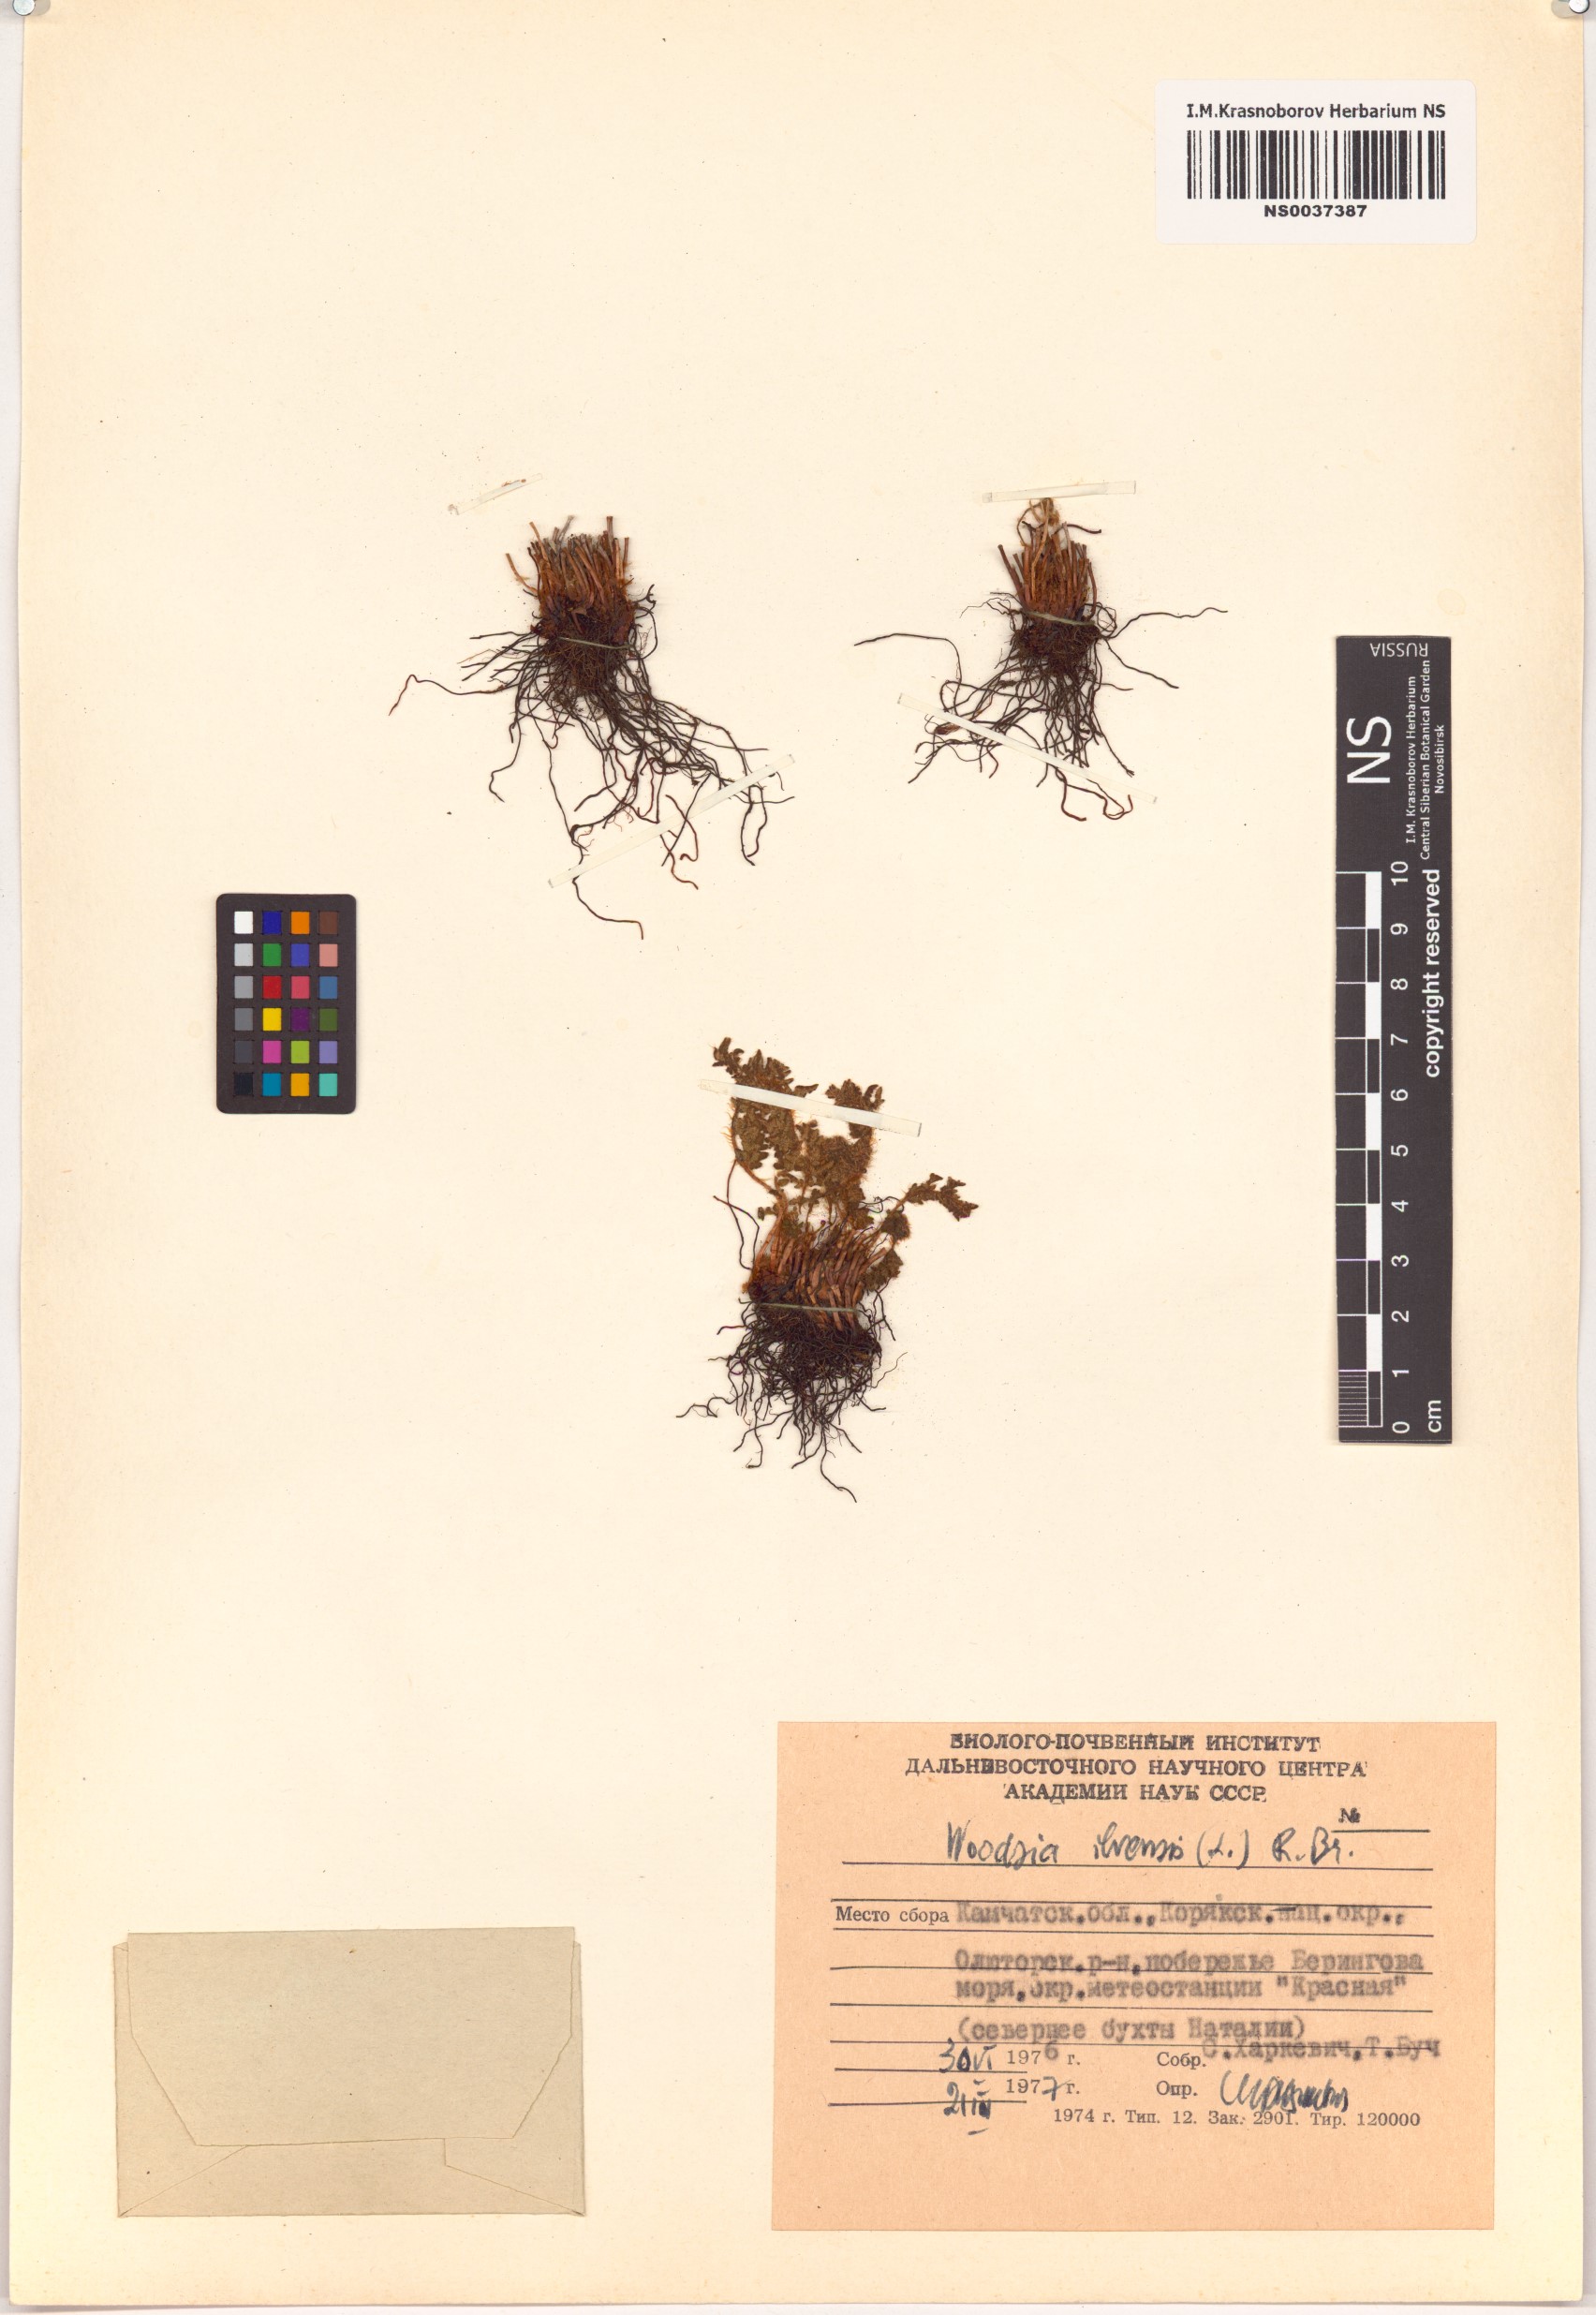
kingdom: Plantae
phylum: Tracheophyta
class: Polypodiopsida
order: Polypodiales
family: Woodsiaceae
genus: Woodsia
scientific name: Woodsia ilvensis
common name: Fragrant woodsia
